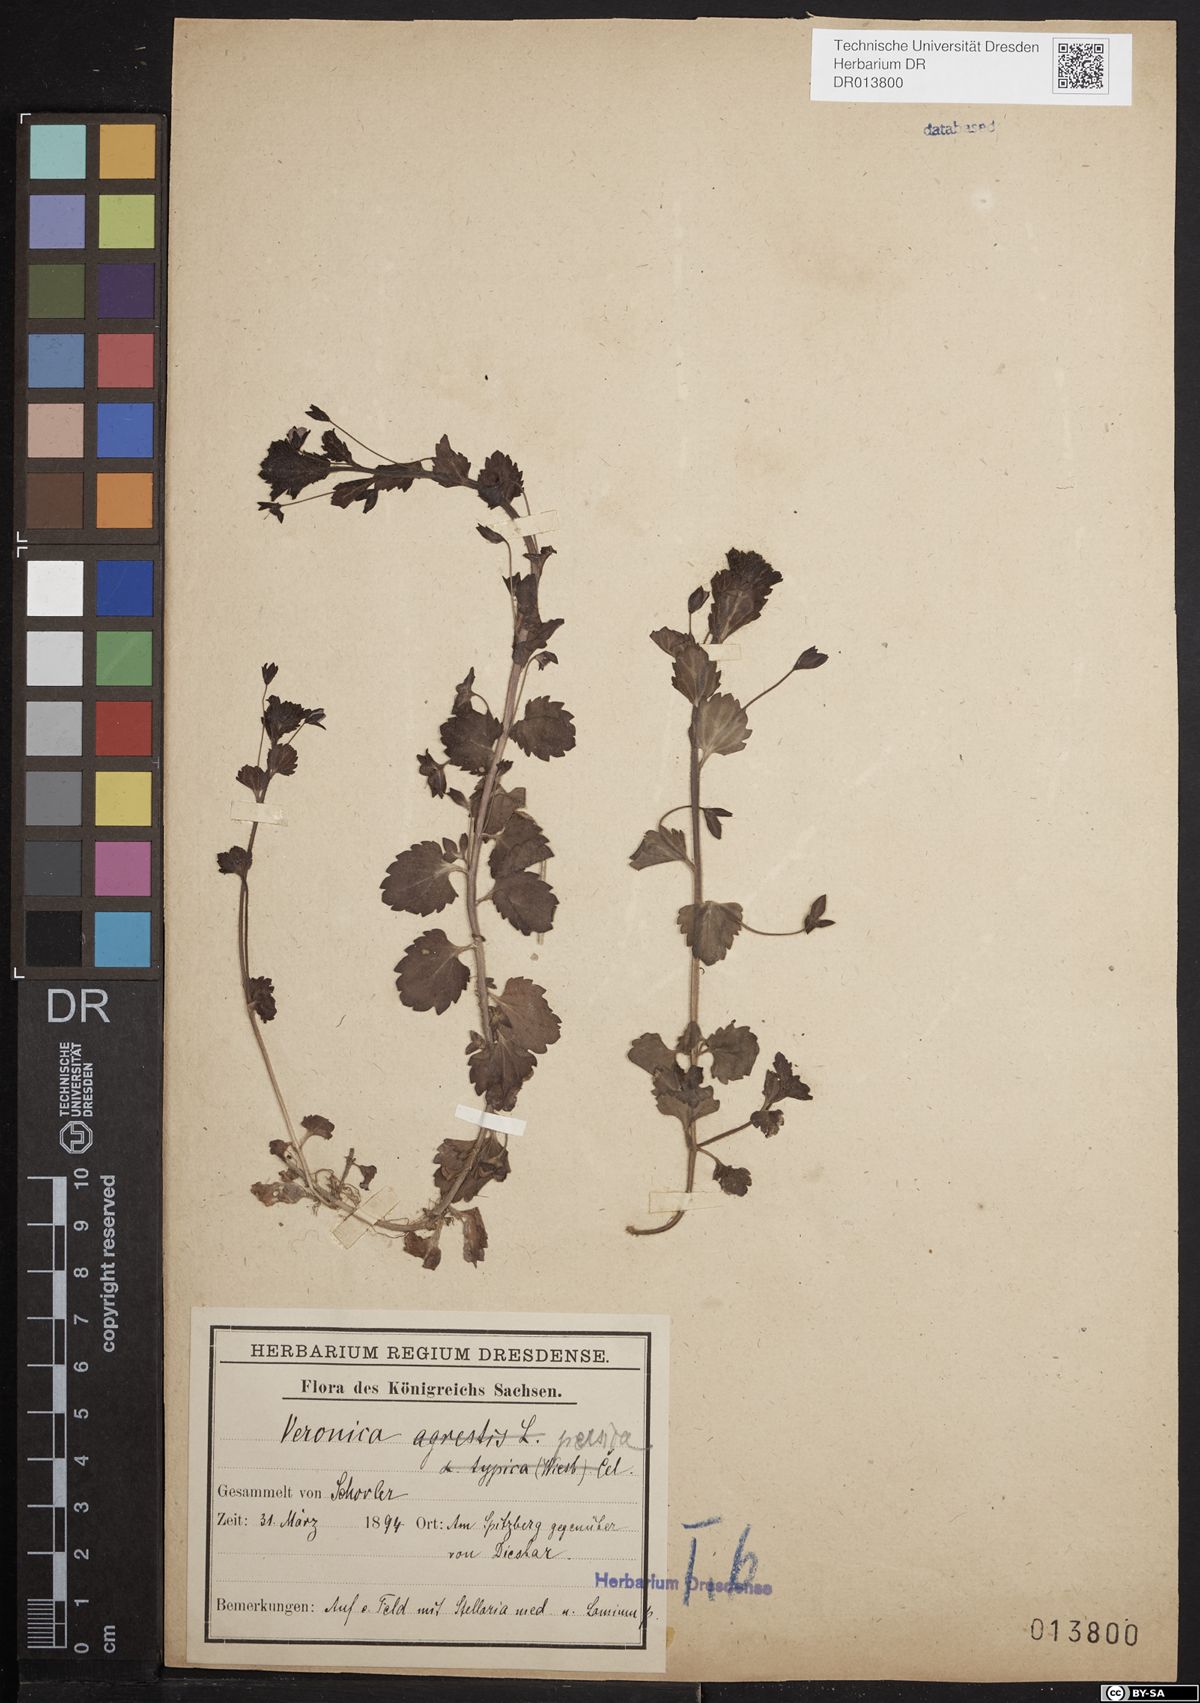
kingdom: Plantae
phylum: Tracheophyta
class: Magnoliopsida
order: Lamiales
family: Plantaginaceae
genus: Veronica
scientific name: Veronica persica
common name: Common field-speedwell
